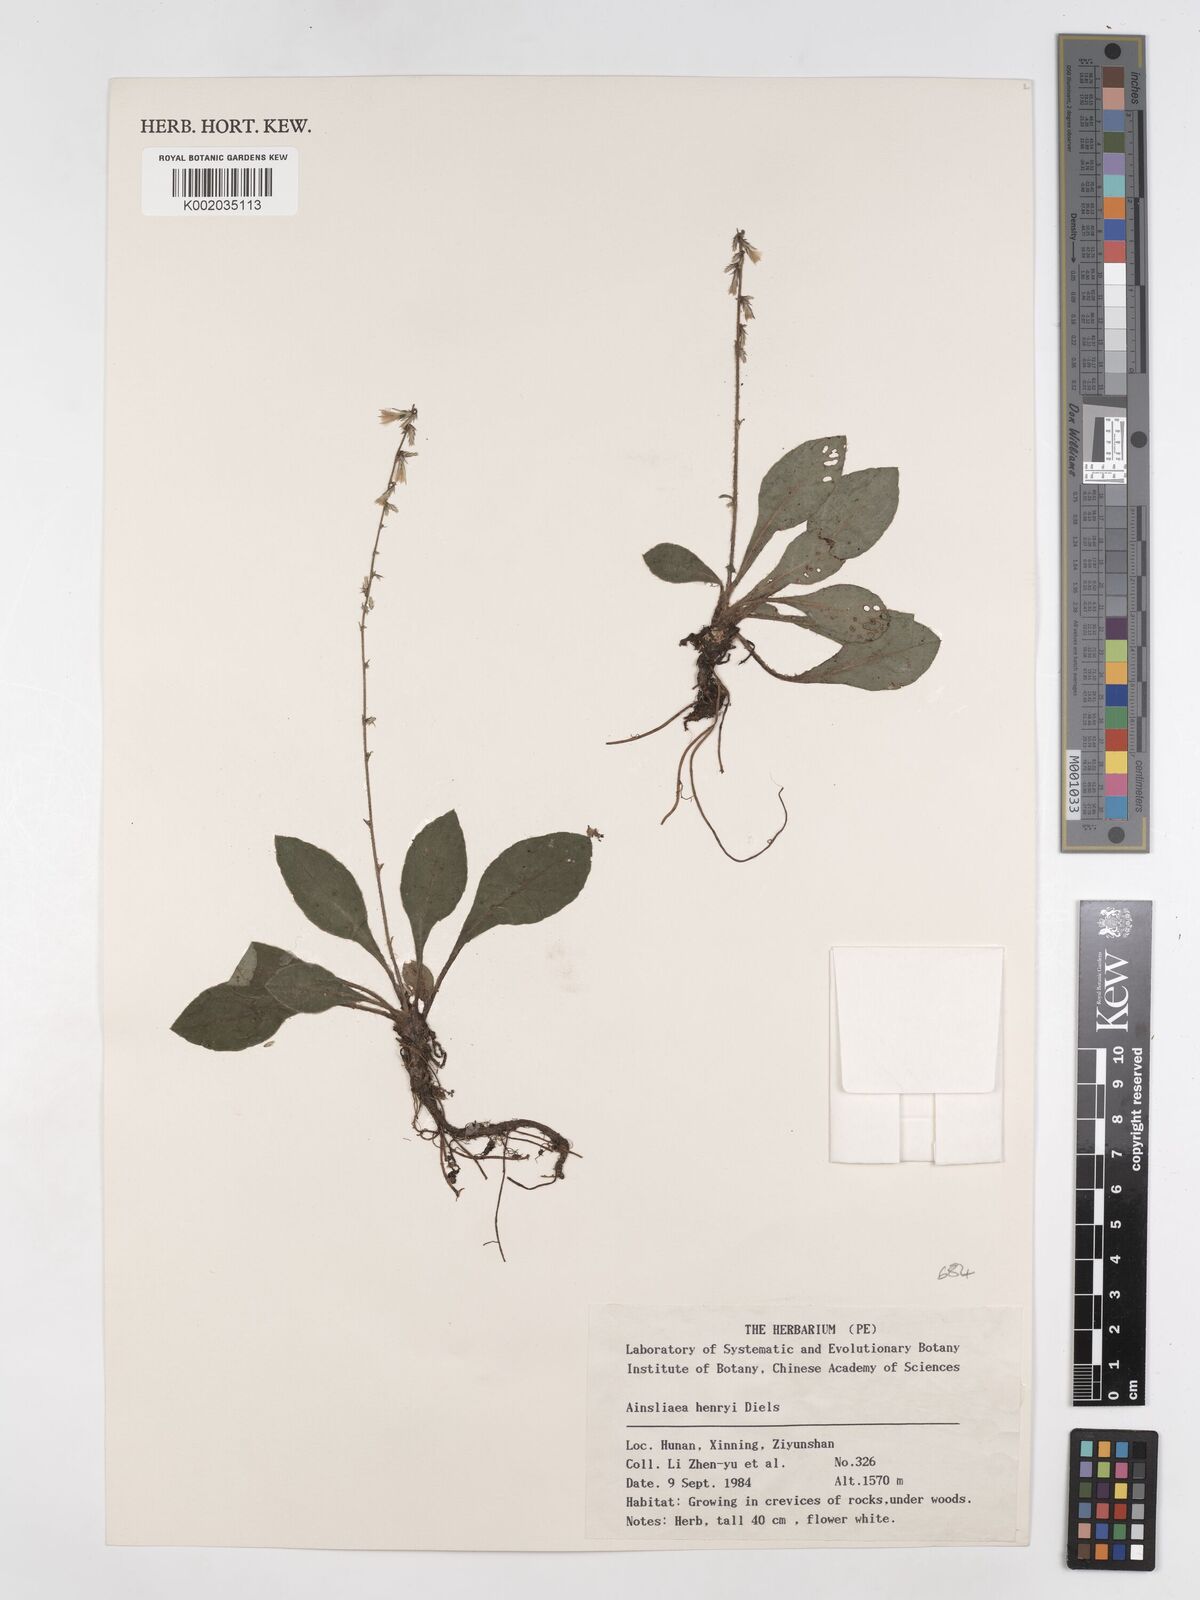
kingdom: Plantae
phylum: Tracheophyta
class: Magnoliopsida
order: Asterales
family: Asteraceae
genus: Ainsliaea
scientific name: Ainsliaea henryi
